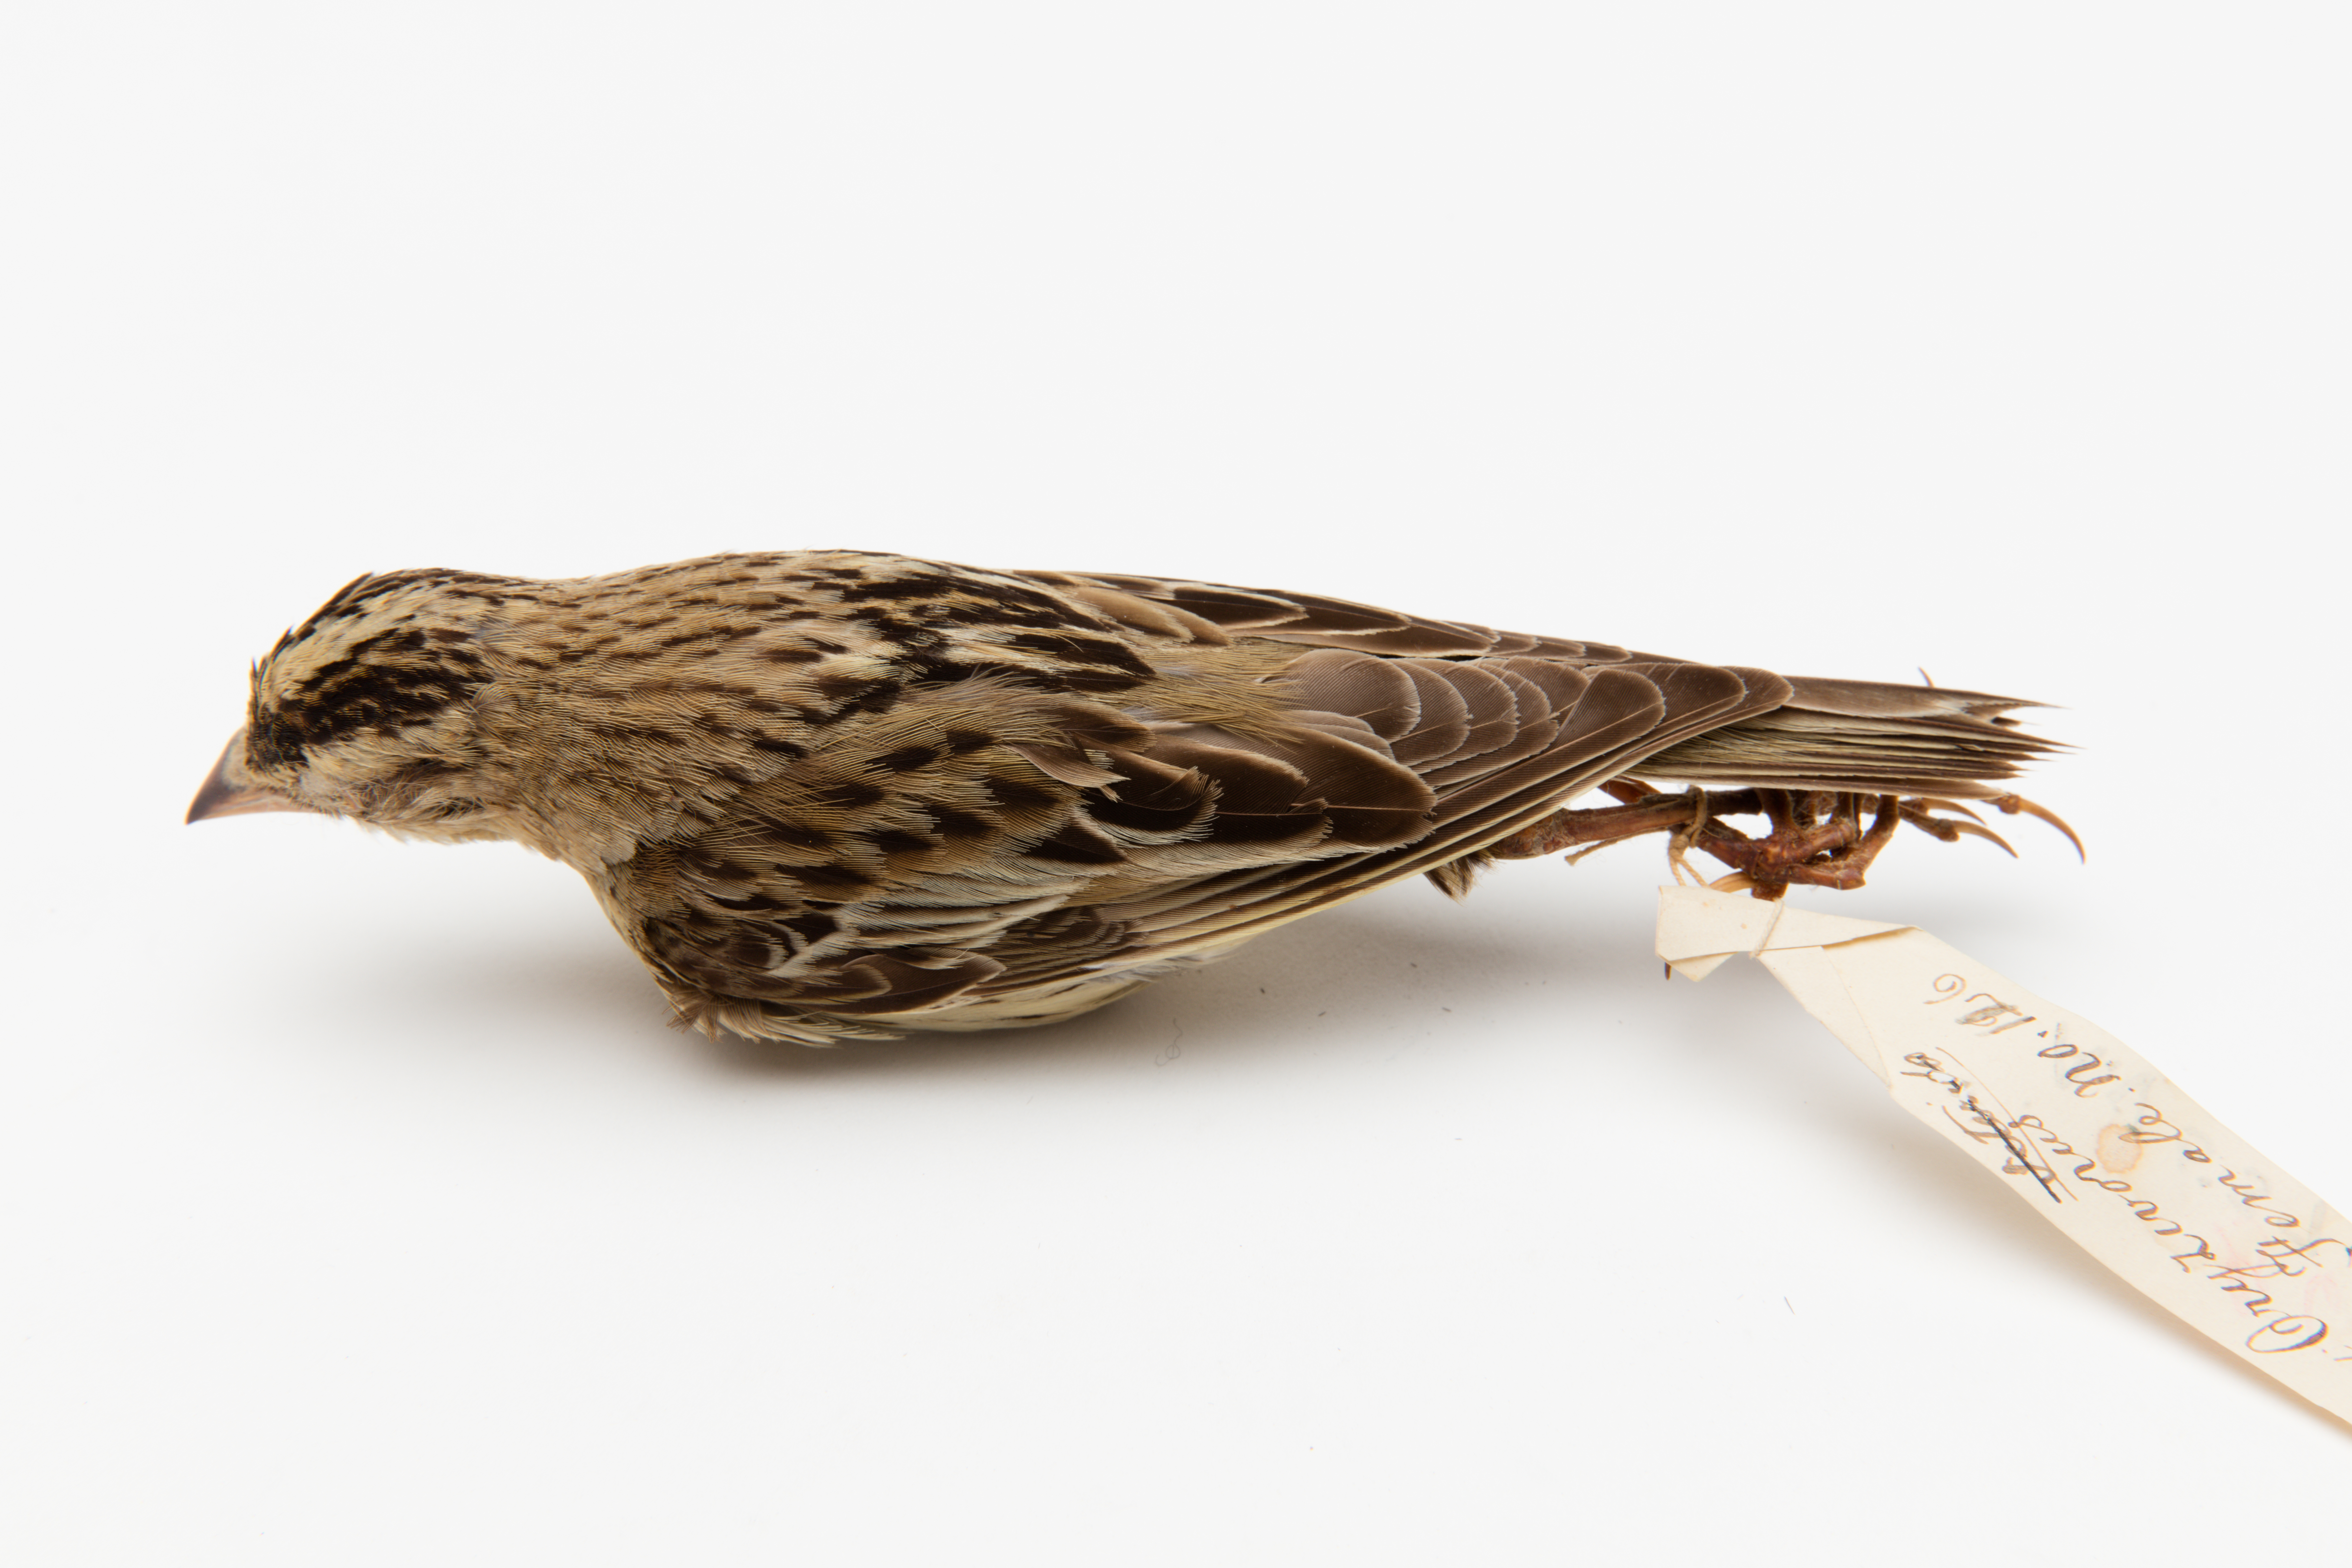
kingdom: Animalia
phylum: Chordata
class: Aves
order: Passeriformes
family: Icteridae
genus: Dolichonyx
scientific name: Dolichonyx oryzivorus
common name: Bobolink
